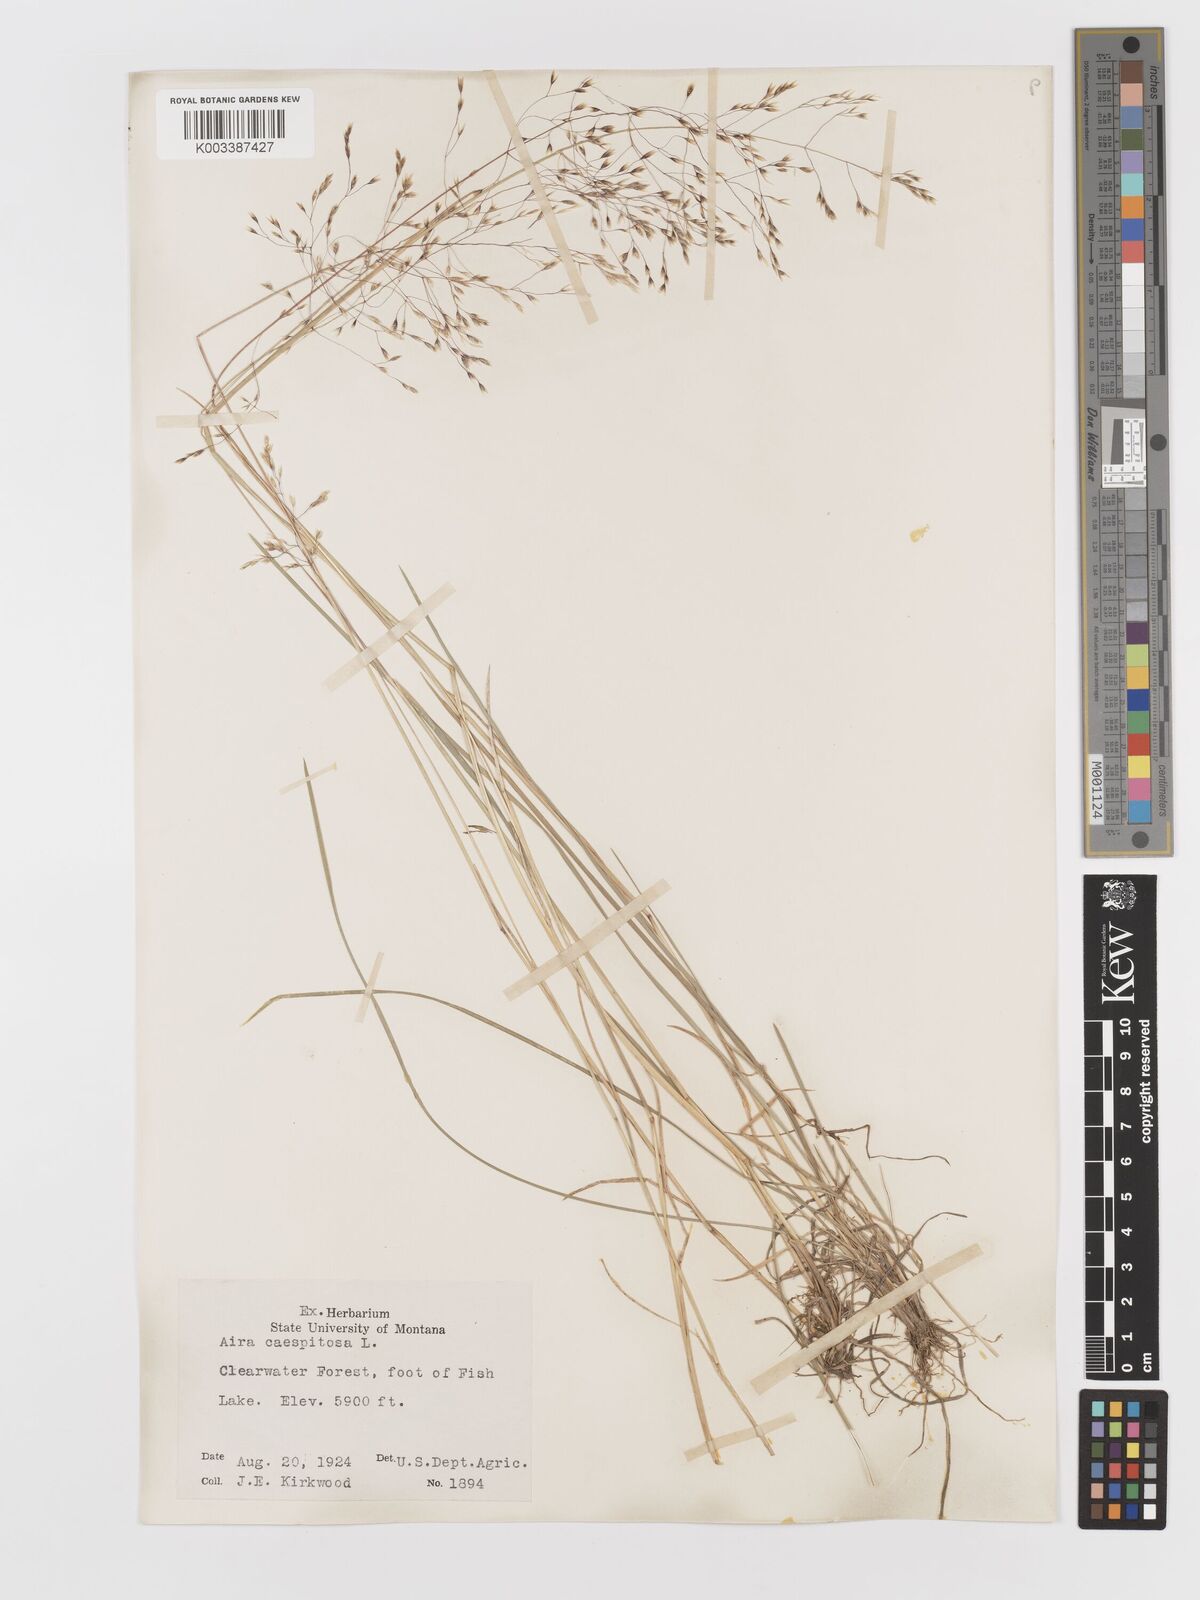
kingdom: Plantae
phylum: Tracheophyta
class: Liliopsida
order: Poales
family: Poaceae
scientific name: Poaceae
